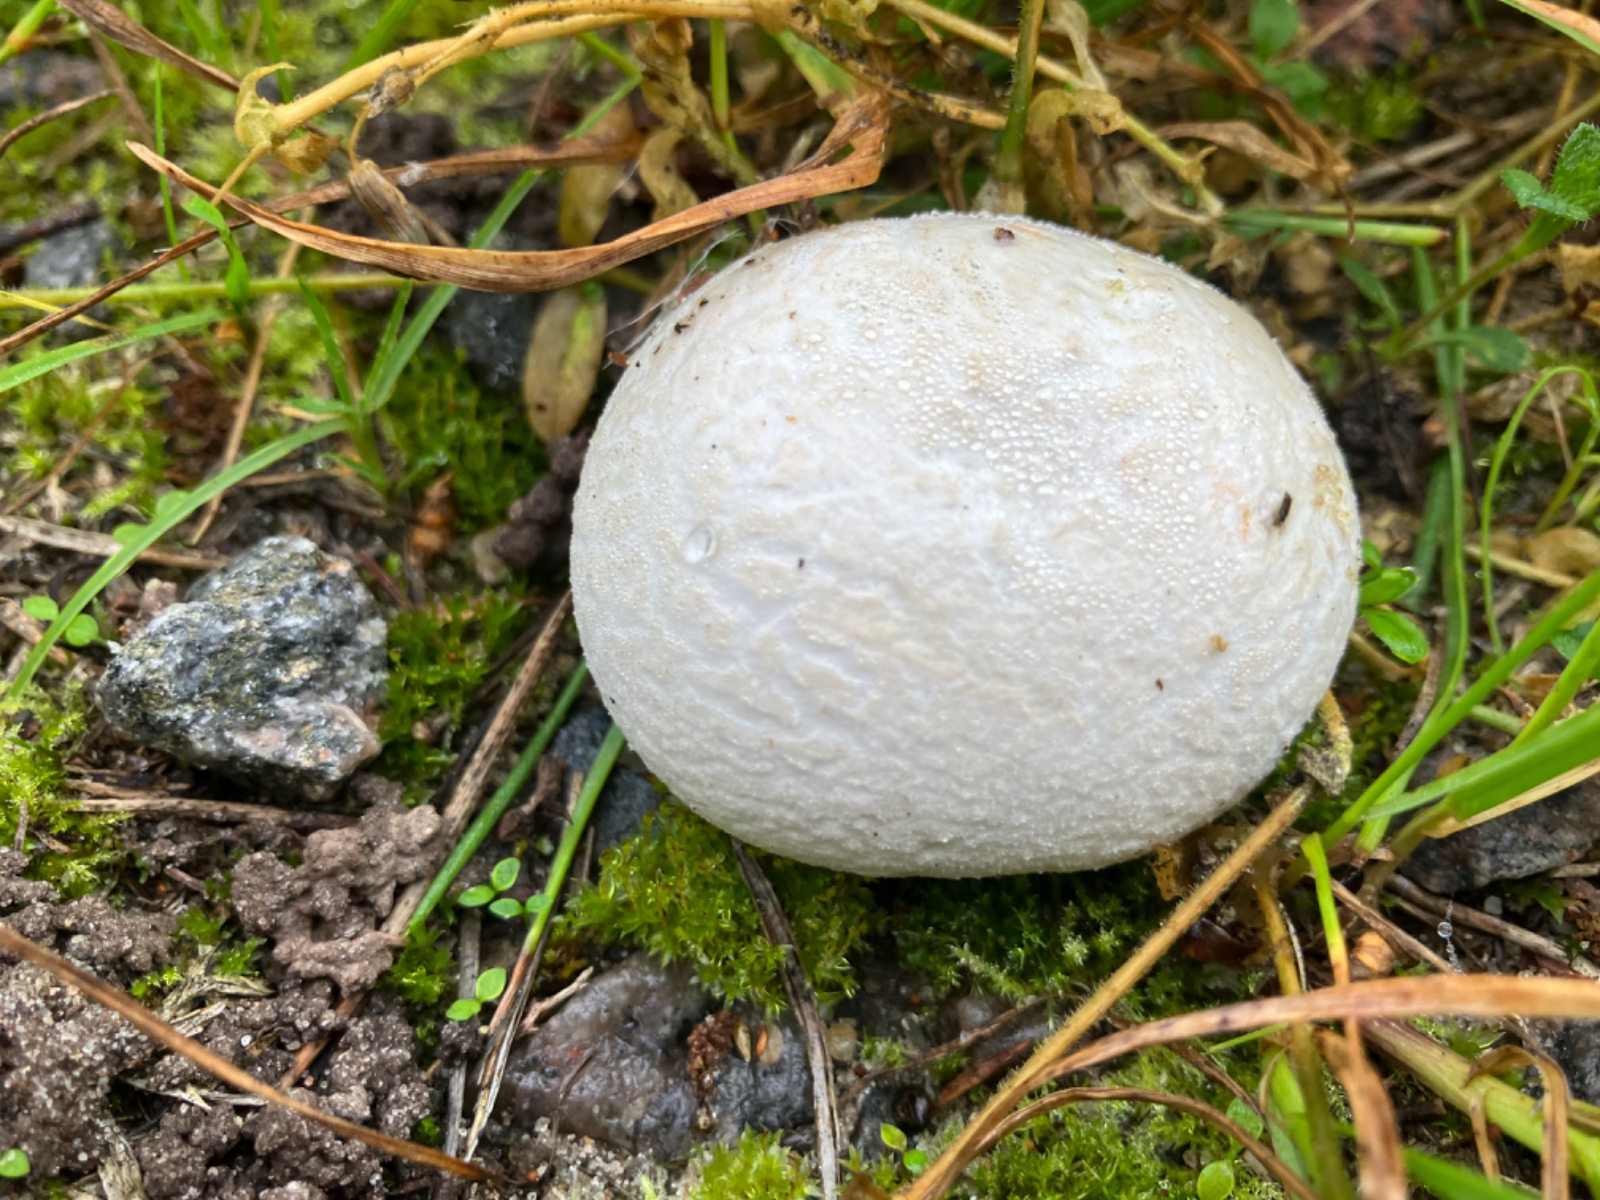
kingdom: Fungi
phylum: Basidiomycota
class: Agaricomycetes
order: Agaricales
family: Lycoperdaceae
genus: Bovista
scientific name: Bovista plumbea
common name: blygrå bovist
